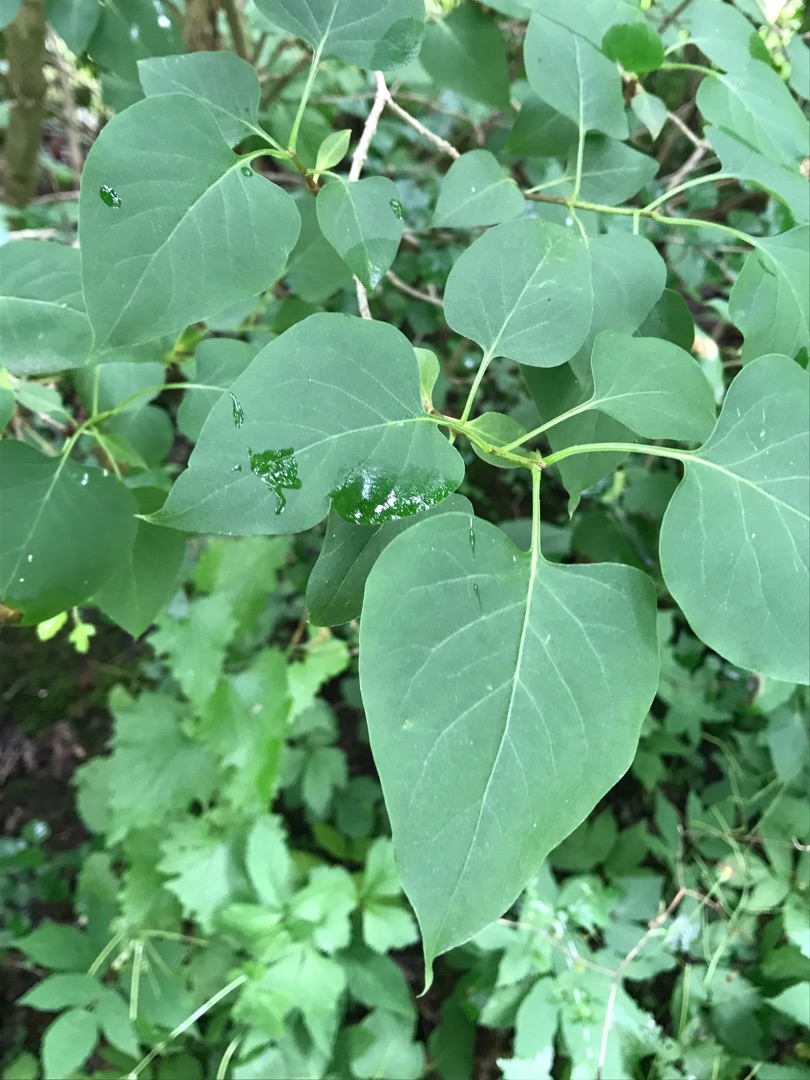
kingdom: Plantae
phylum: Tracheophyta
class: Magnoliopsida
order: Lamiales
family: Oleaceae
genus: Syringa
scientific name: Syringa vulgaris
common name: Syren
